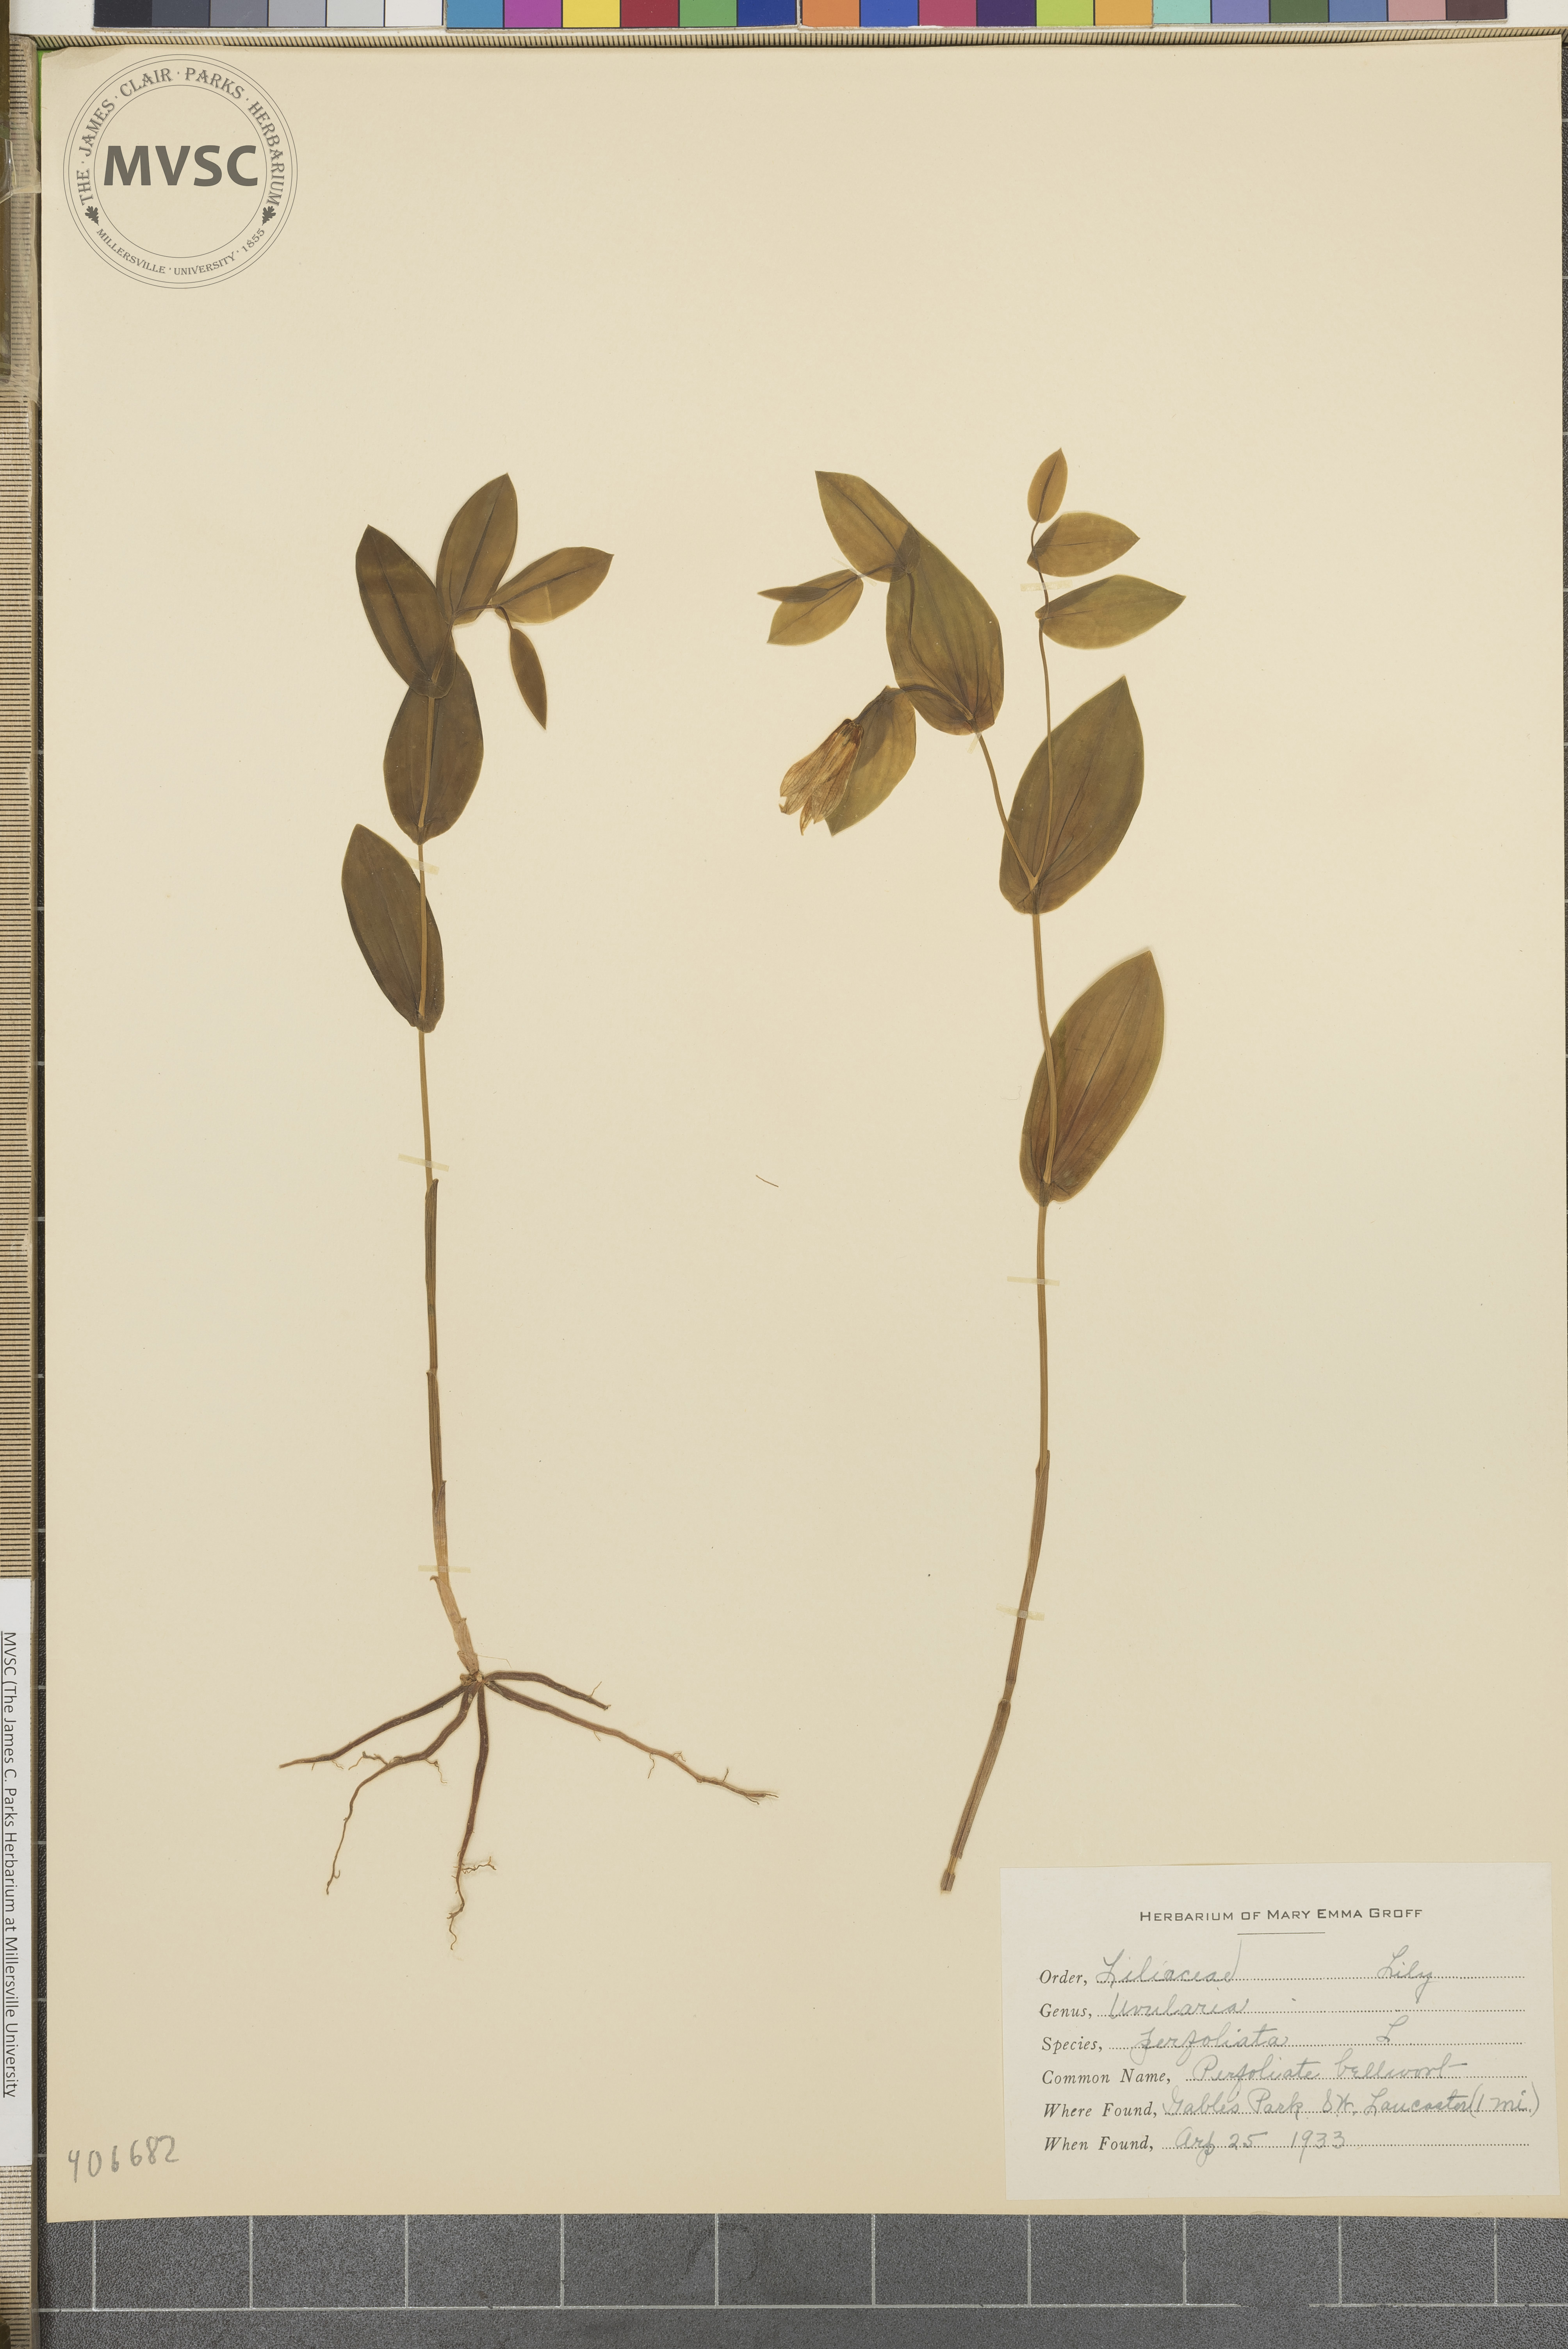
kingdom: Plantae
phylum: Tracheophyta
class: Liliopsida
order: Liliales
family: Colchicaceae
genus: Uvularia
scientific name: Uvularia perfoliata
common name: Perfoliate bellwort
